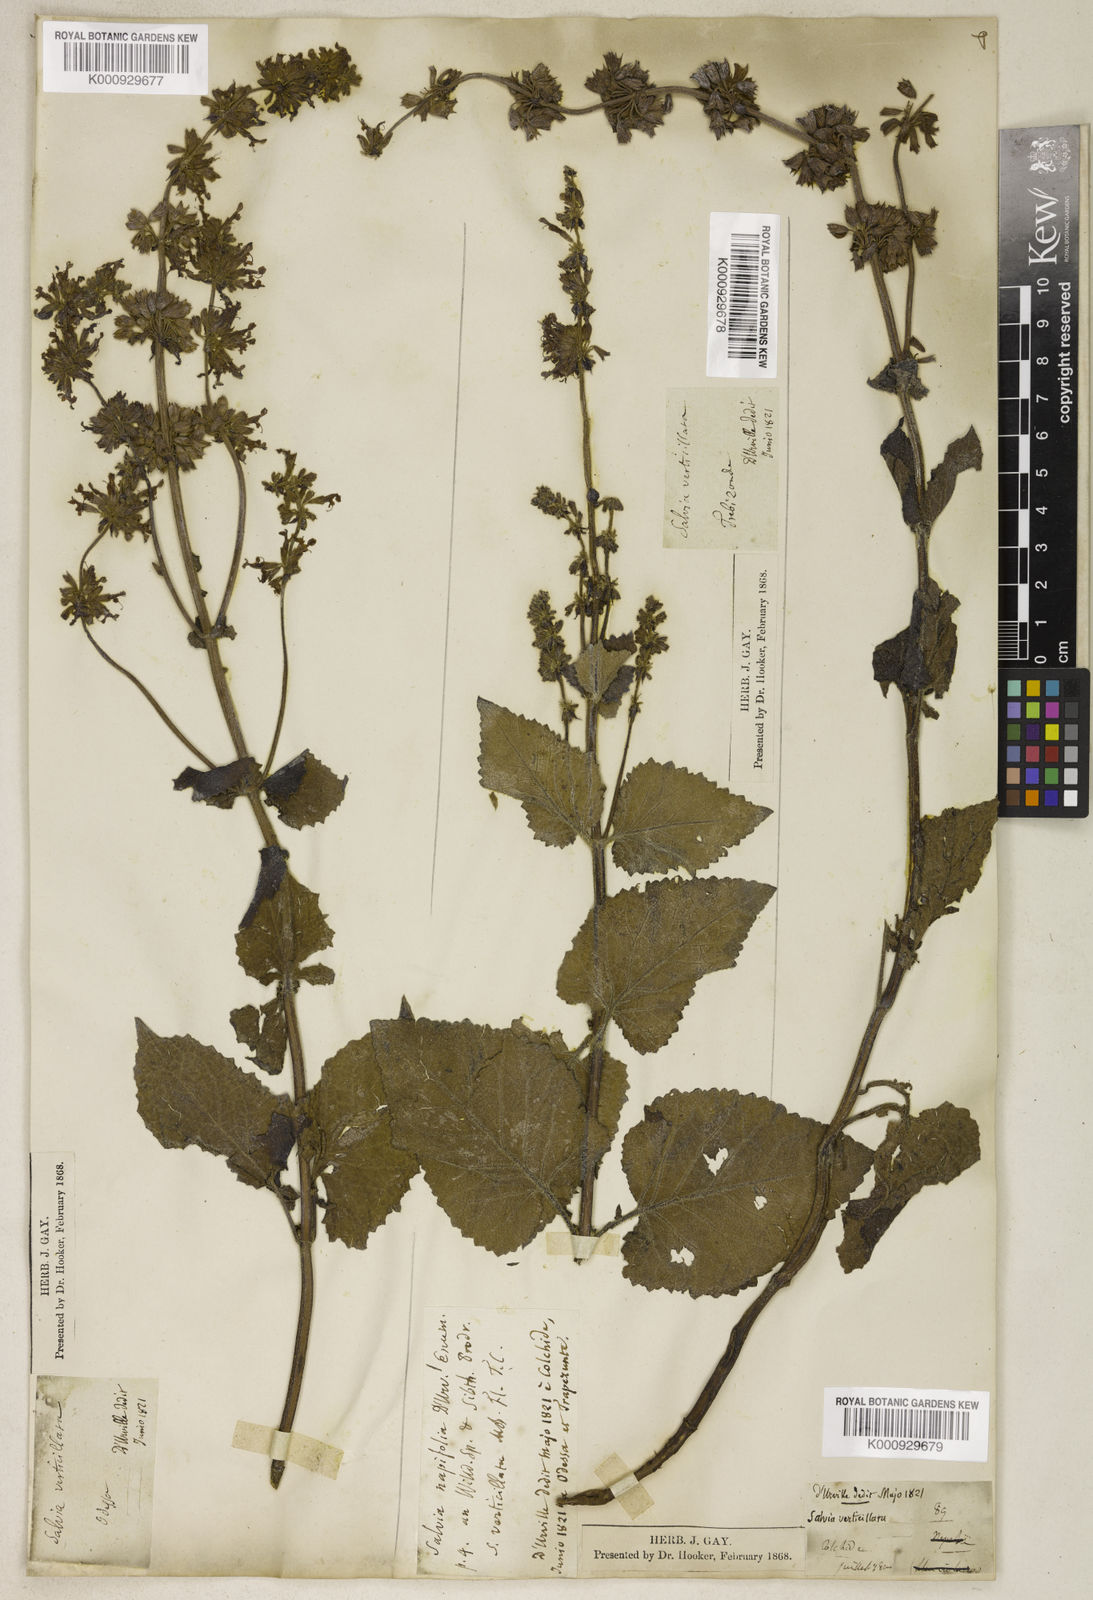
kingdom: Plantae
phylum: Tracheophyta
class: Magnoliopsida
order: Lamiales
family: Lamiaceae
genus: Salvia
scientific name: Salvia verticillata
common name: Whorled clary
